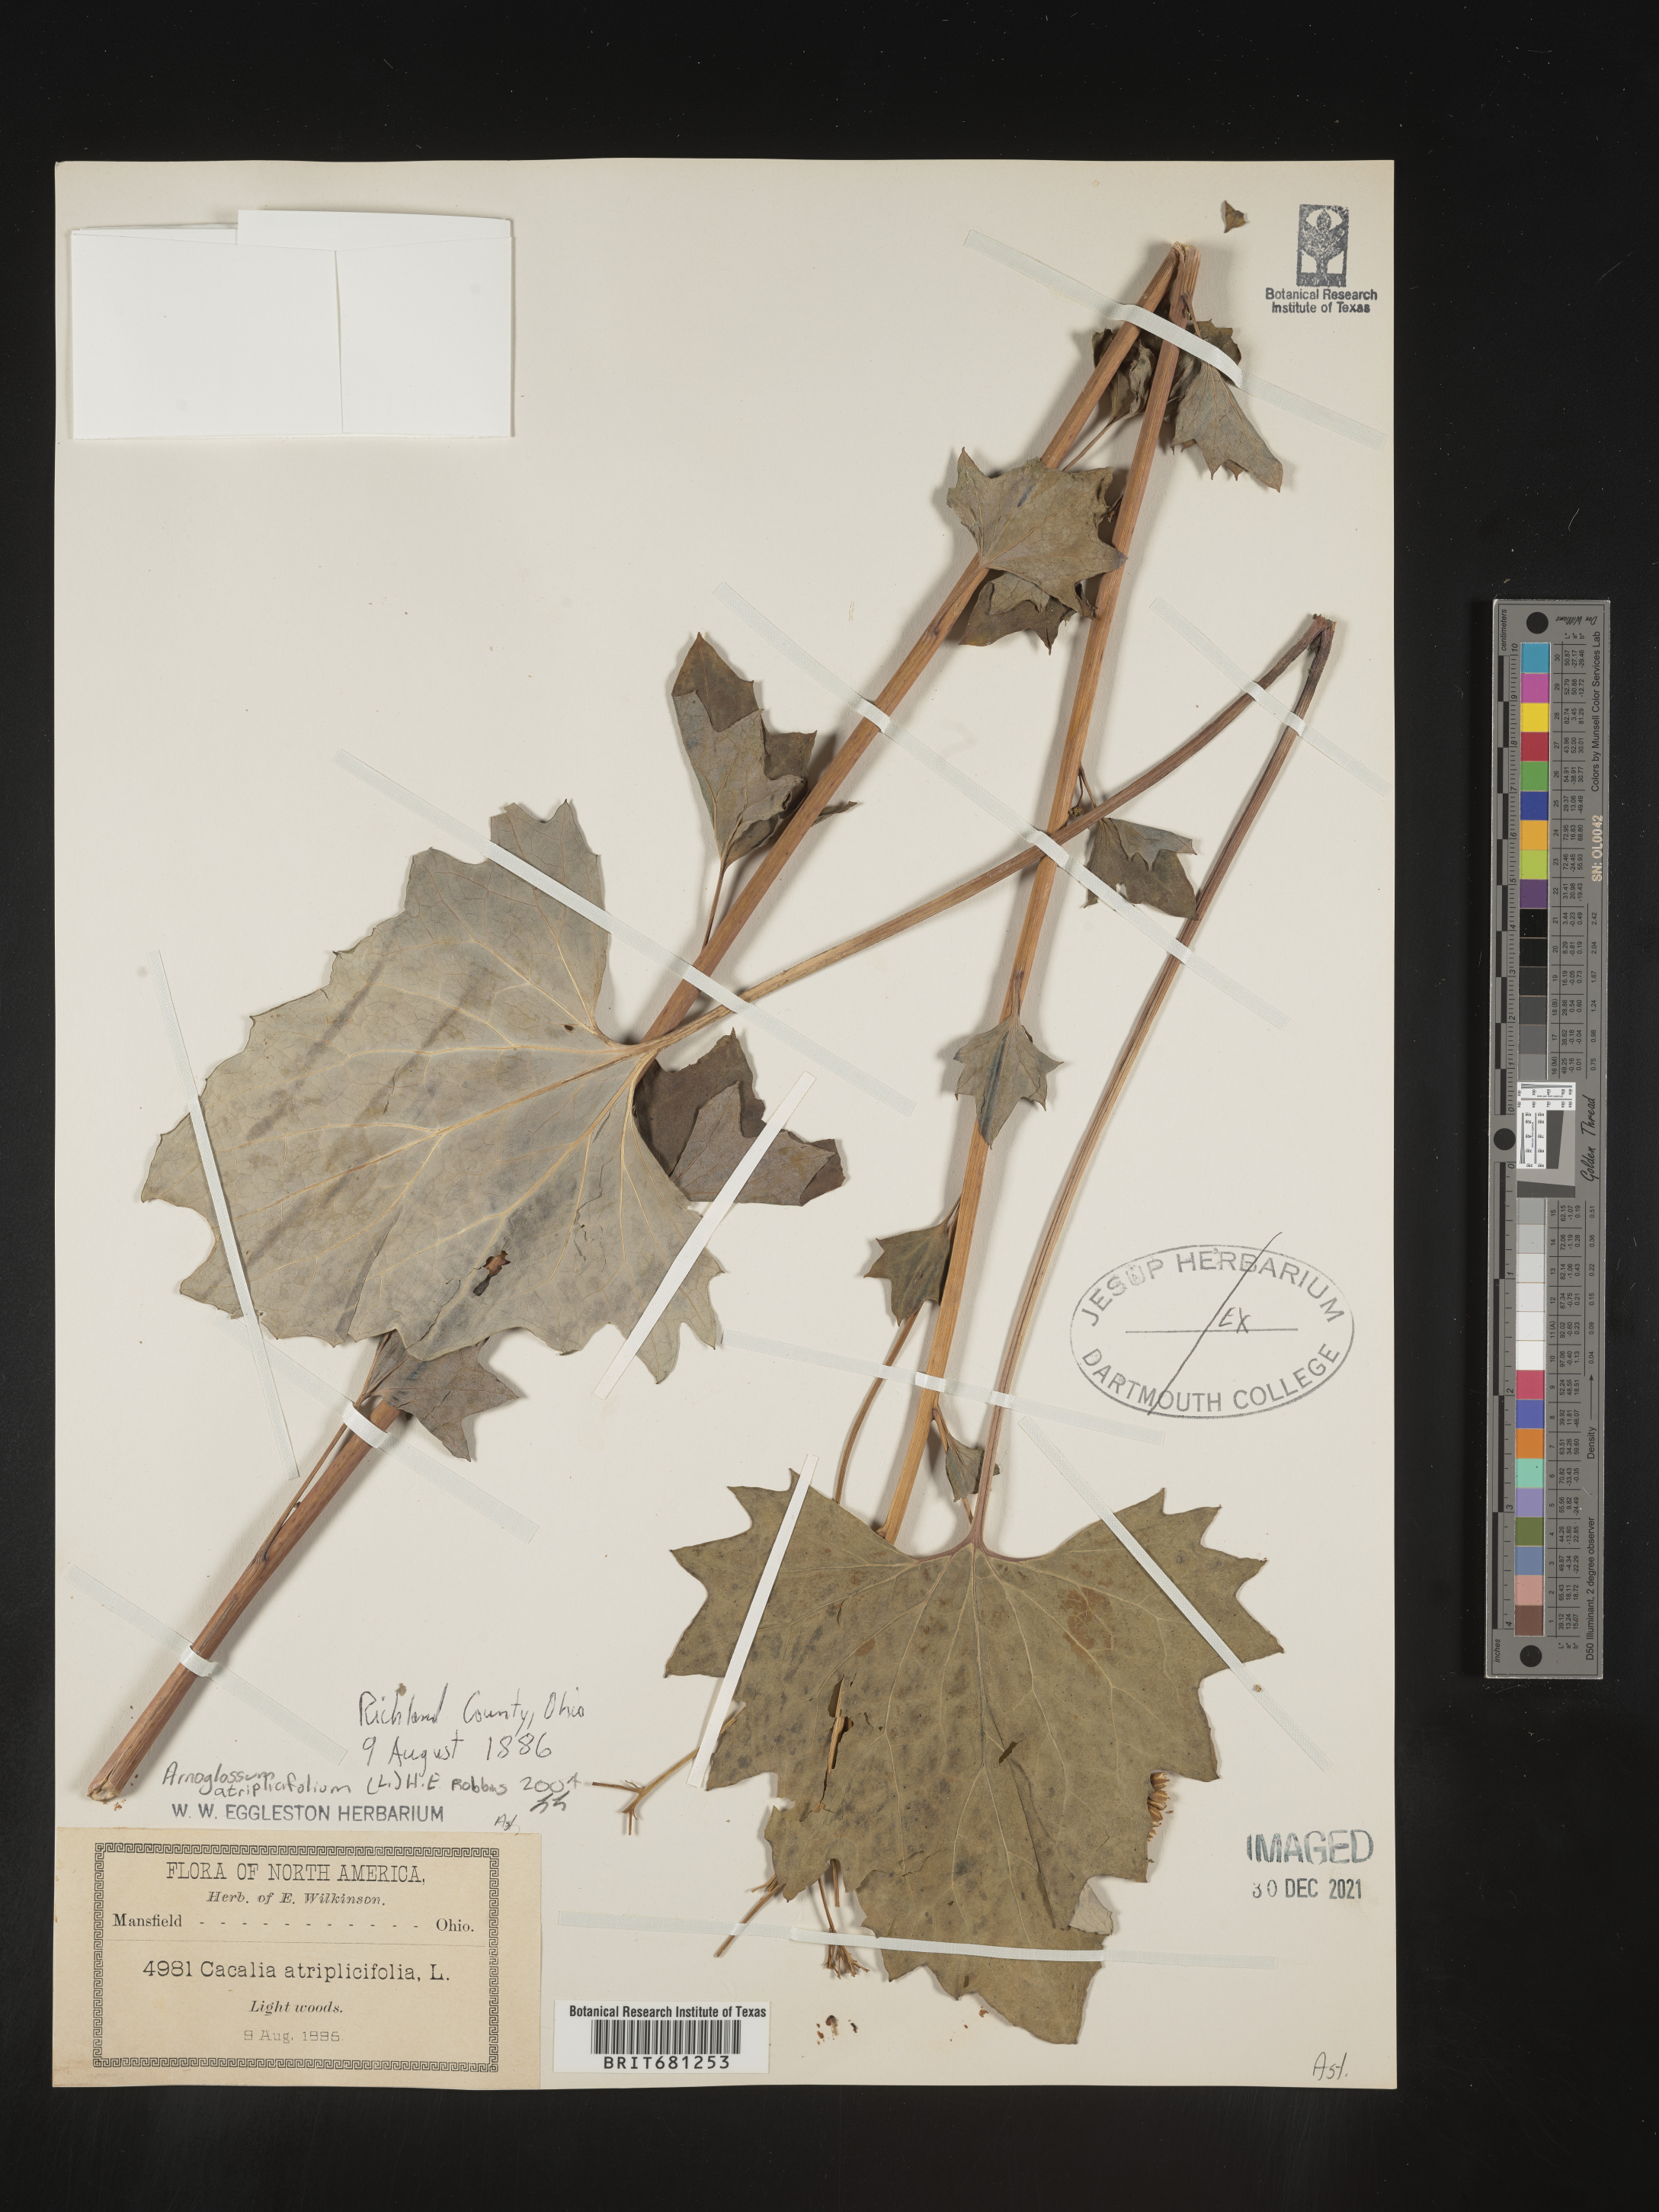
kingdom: Plantae
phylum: Tracheophyta
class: Magnoliopsida
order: Asterales
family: Asteraceae
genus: Arnoglossum
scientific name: Arnoglossum atriplicifolium
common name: Pale indian-plantain
